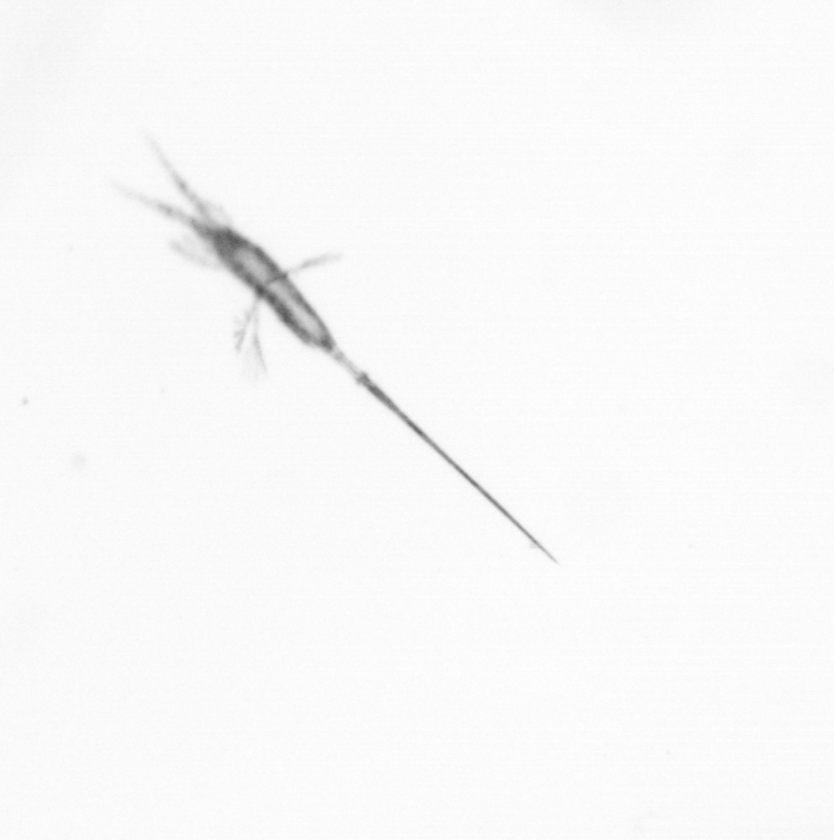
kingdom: Animalia
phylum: Arthropoda
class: Copepoda
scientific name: Copepoda
